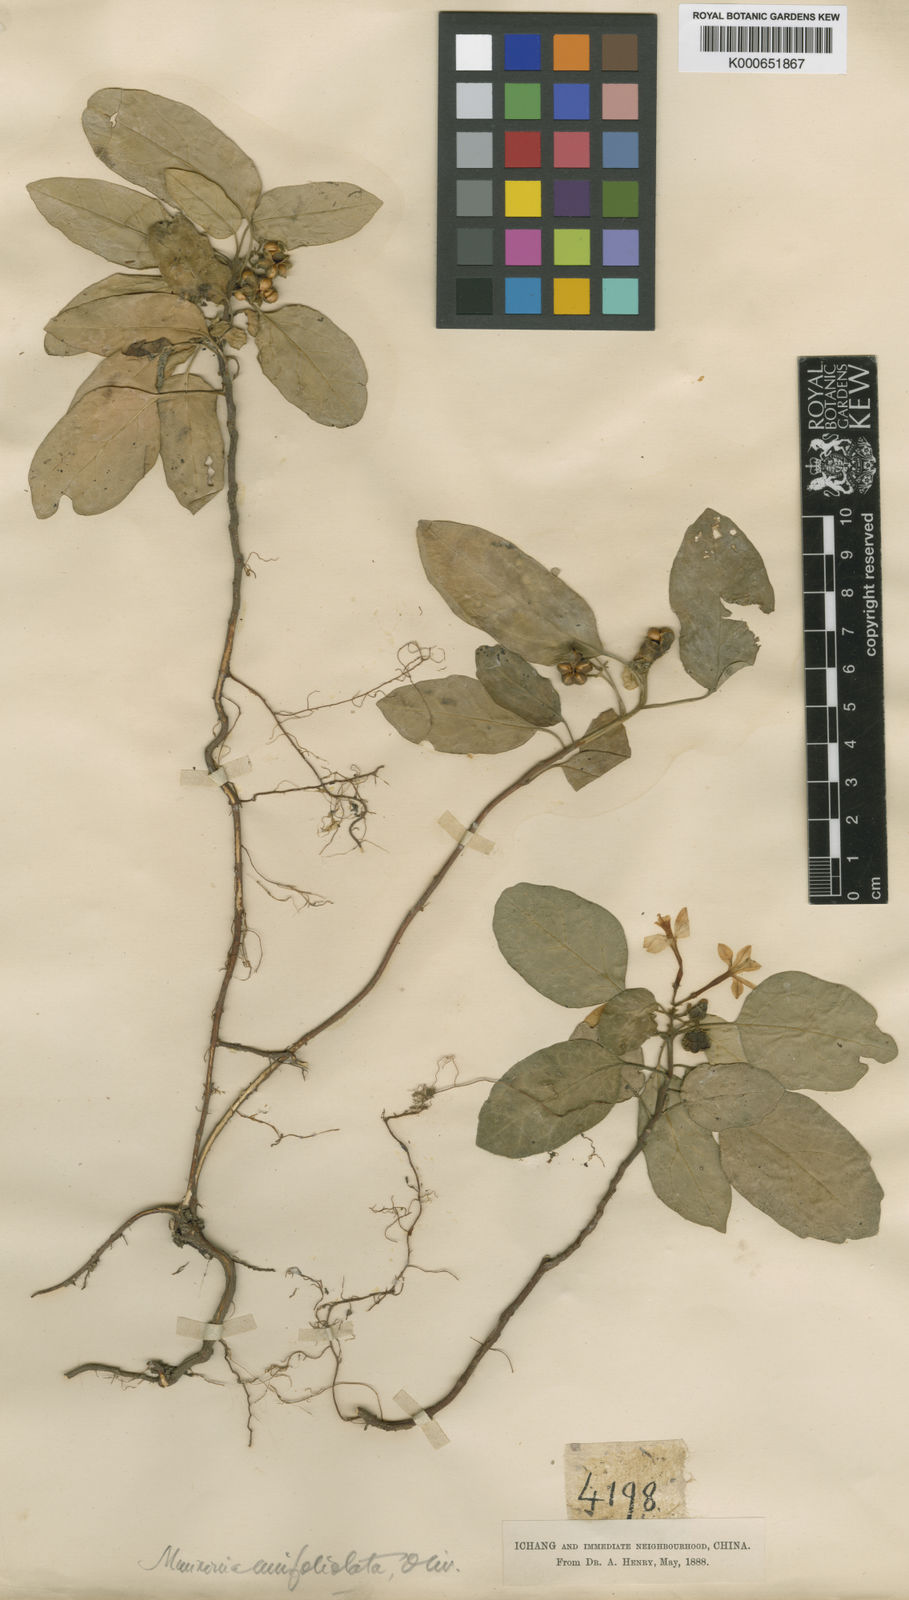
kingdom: Plantae
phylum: Tracheophyta
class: Magnoliopsida
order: Sapindales
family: Meliaceae
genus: Munronia
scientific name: Munronia unifoliolata
